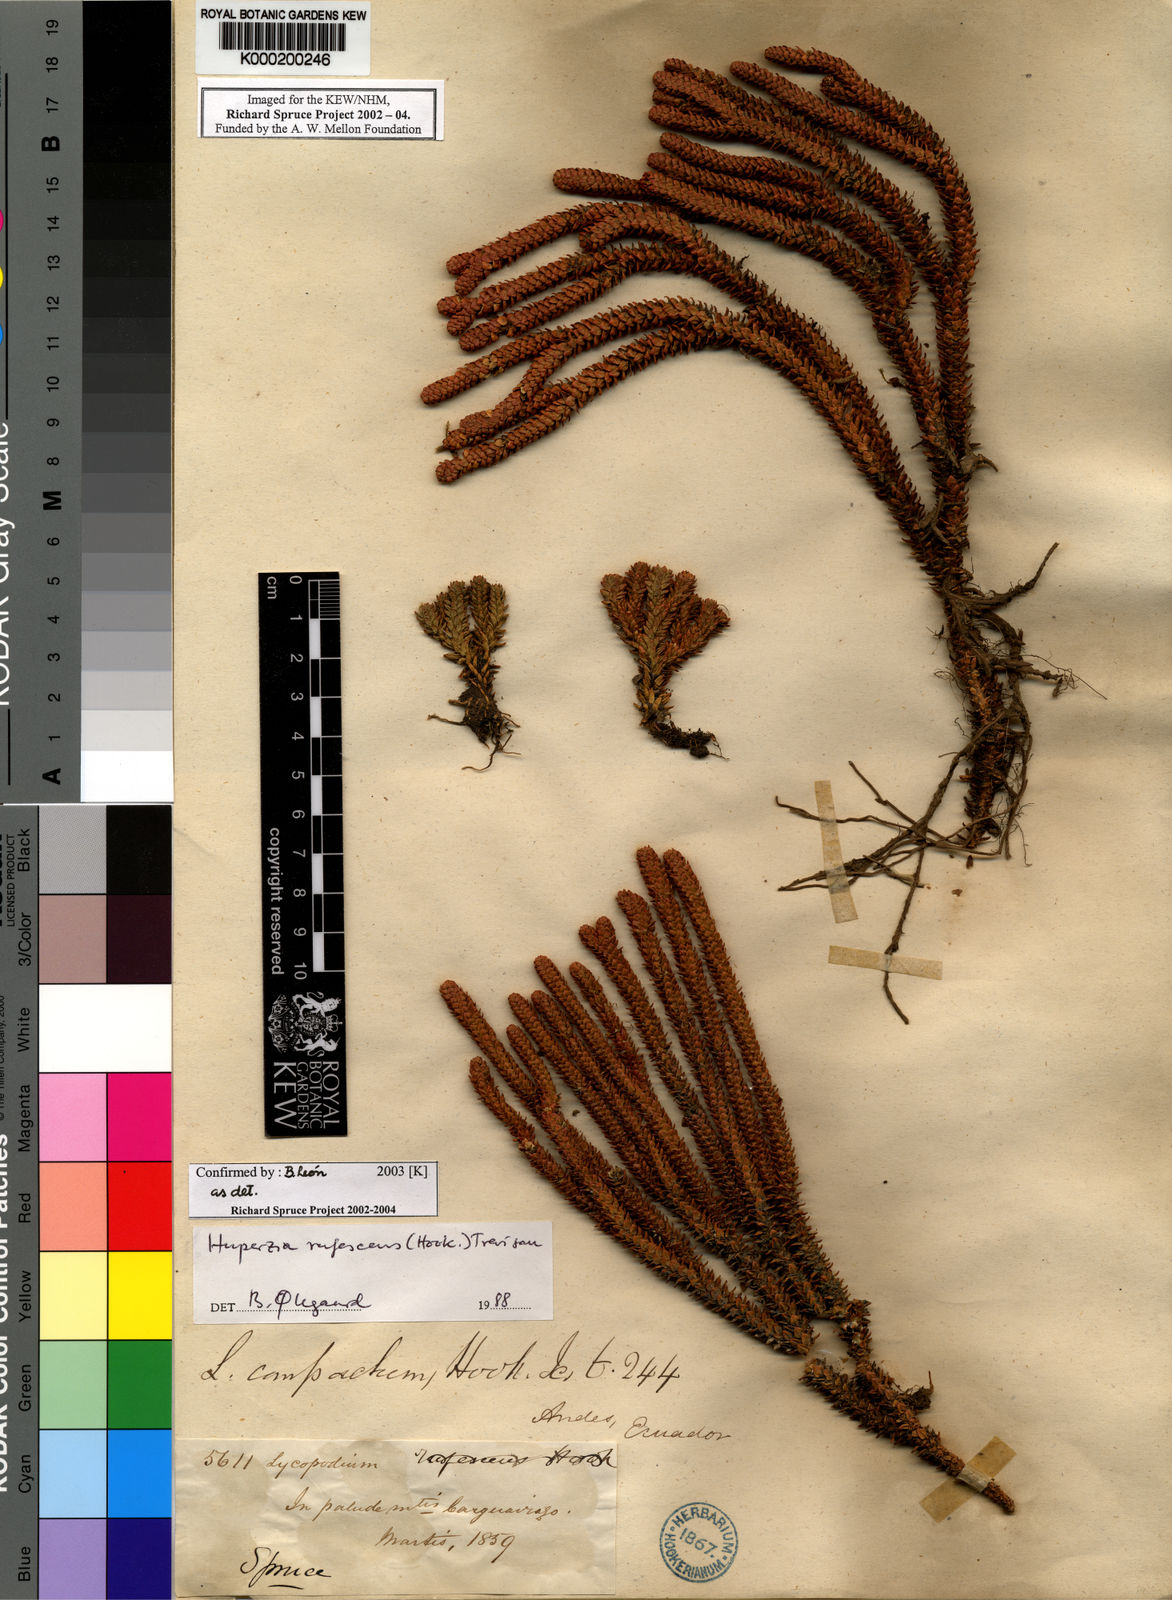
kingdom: Plantae
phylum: Tracheophyta
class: Lycopodiopsida
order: Lycopodiales
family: Lycopodiaceae
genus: Huperzia
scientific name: Huperzia
